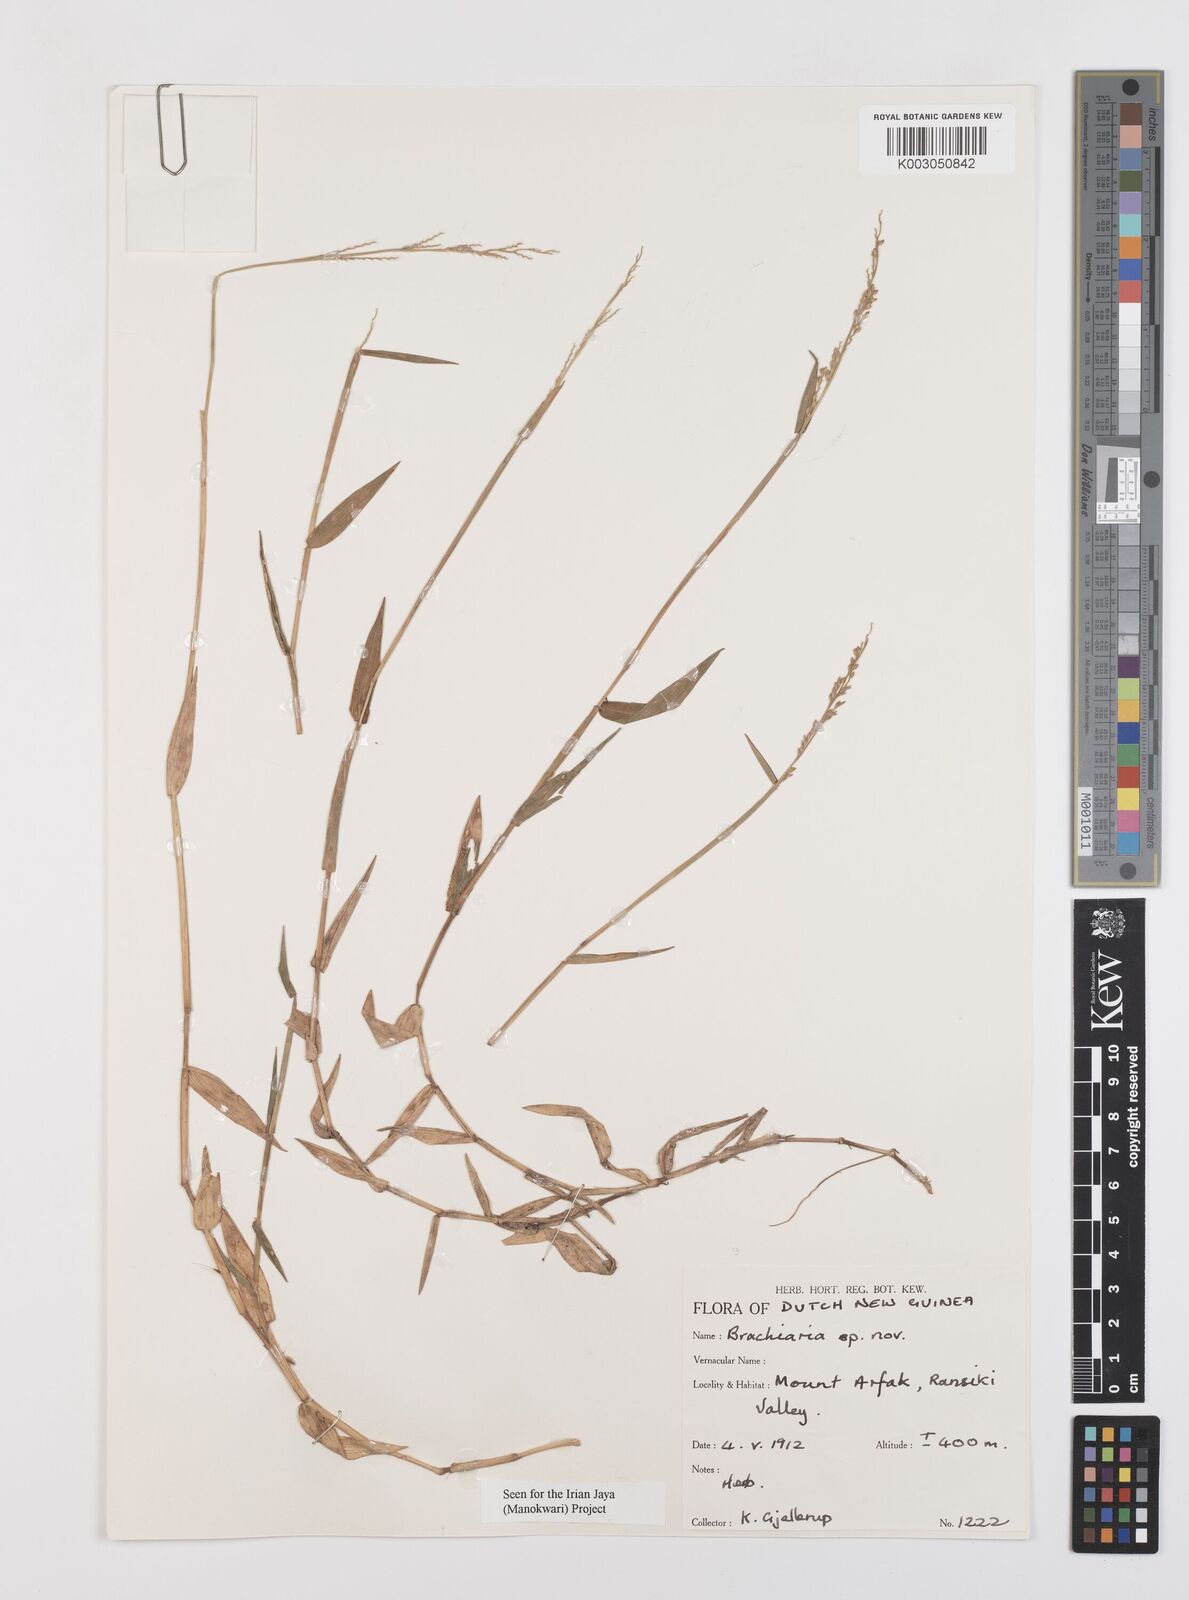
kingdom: Plantae
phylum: Tracheophyta
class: Liliopsida
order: Poales
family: Poaceae
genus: Urochloa
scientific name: Urochloa villosa
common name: Hairy signalgrass
